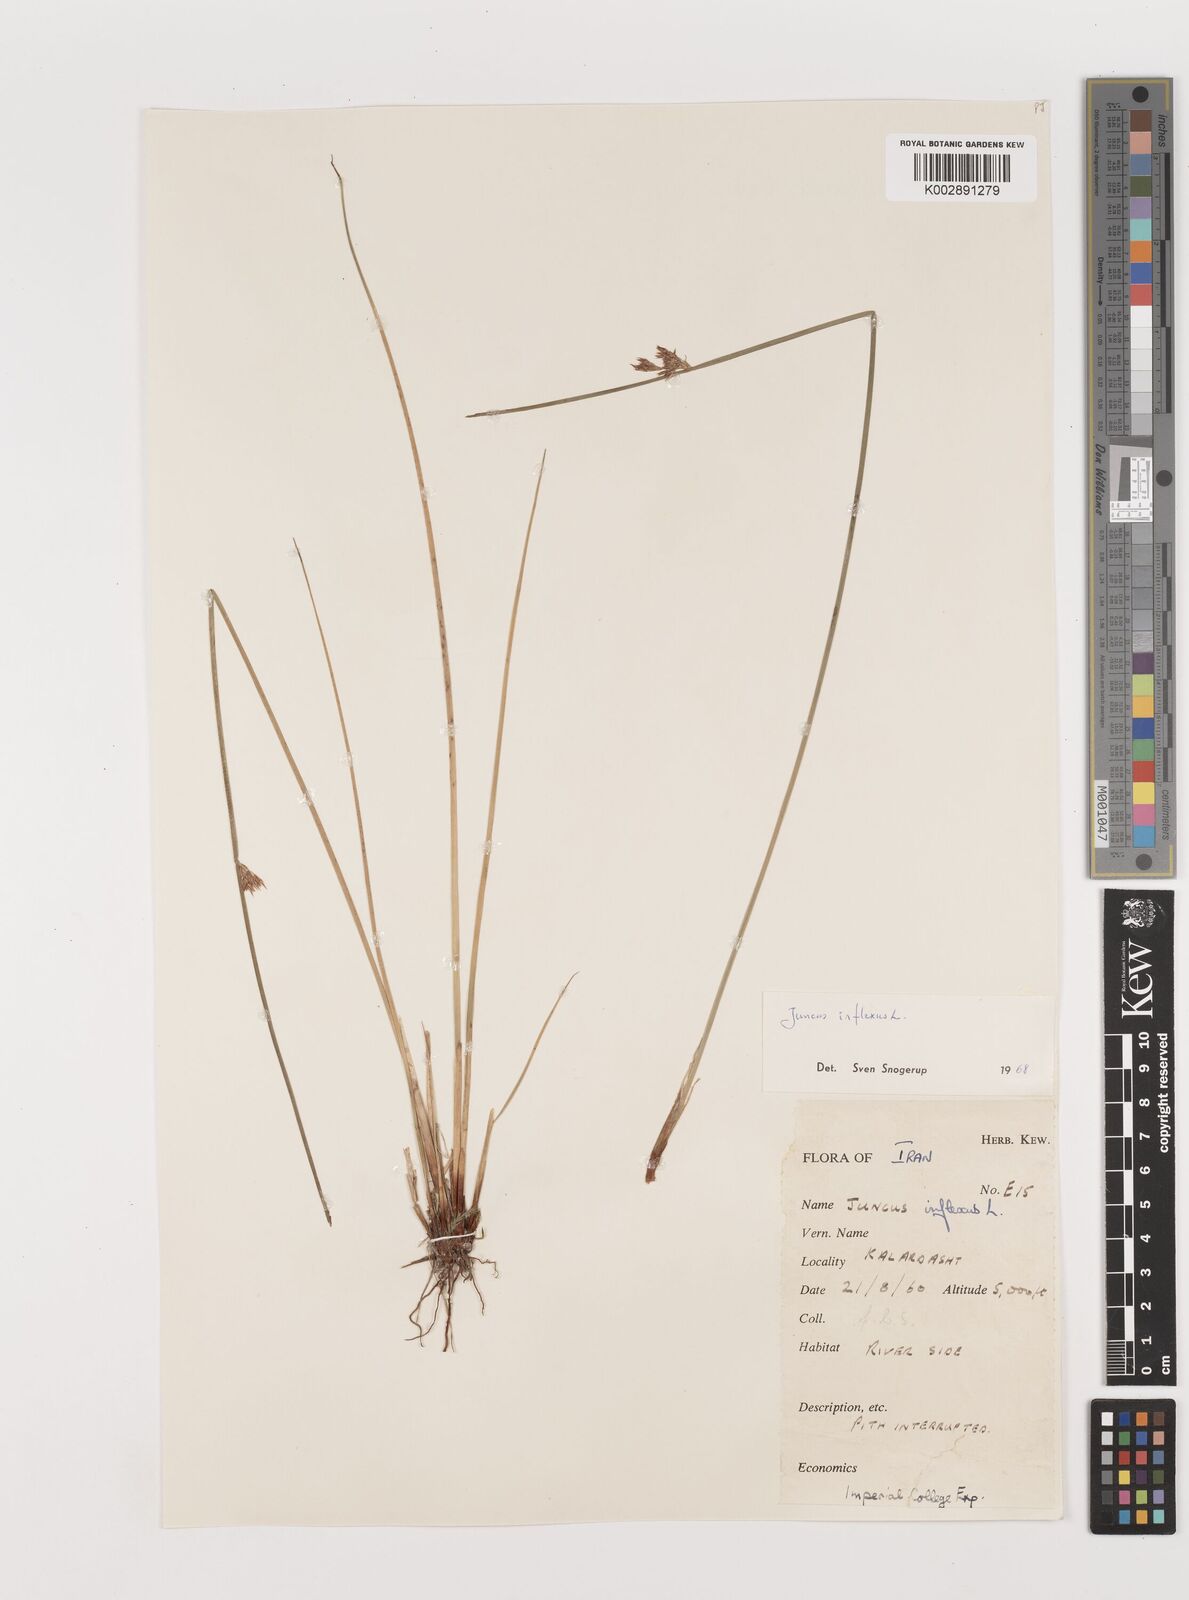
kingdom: Plantae
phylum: Tracheophyta
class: Liliopsida
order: Poales
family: Juncaceae
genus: Juncus
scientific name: Juncus inflexus
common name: Hard rush
